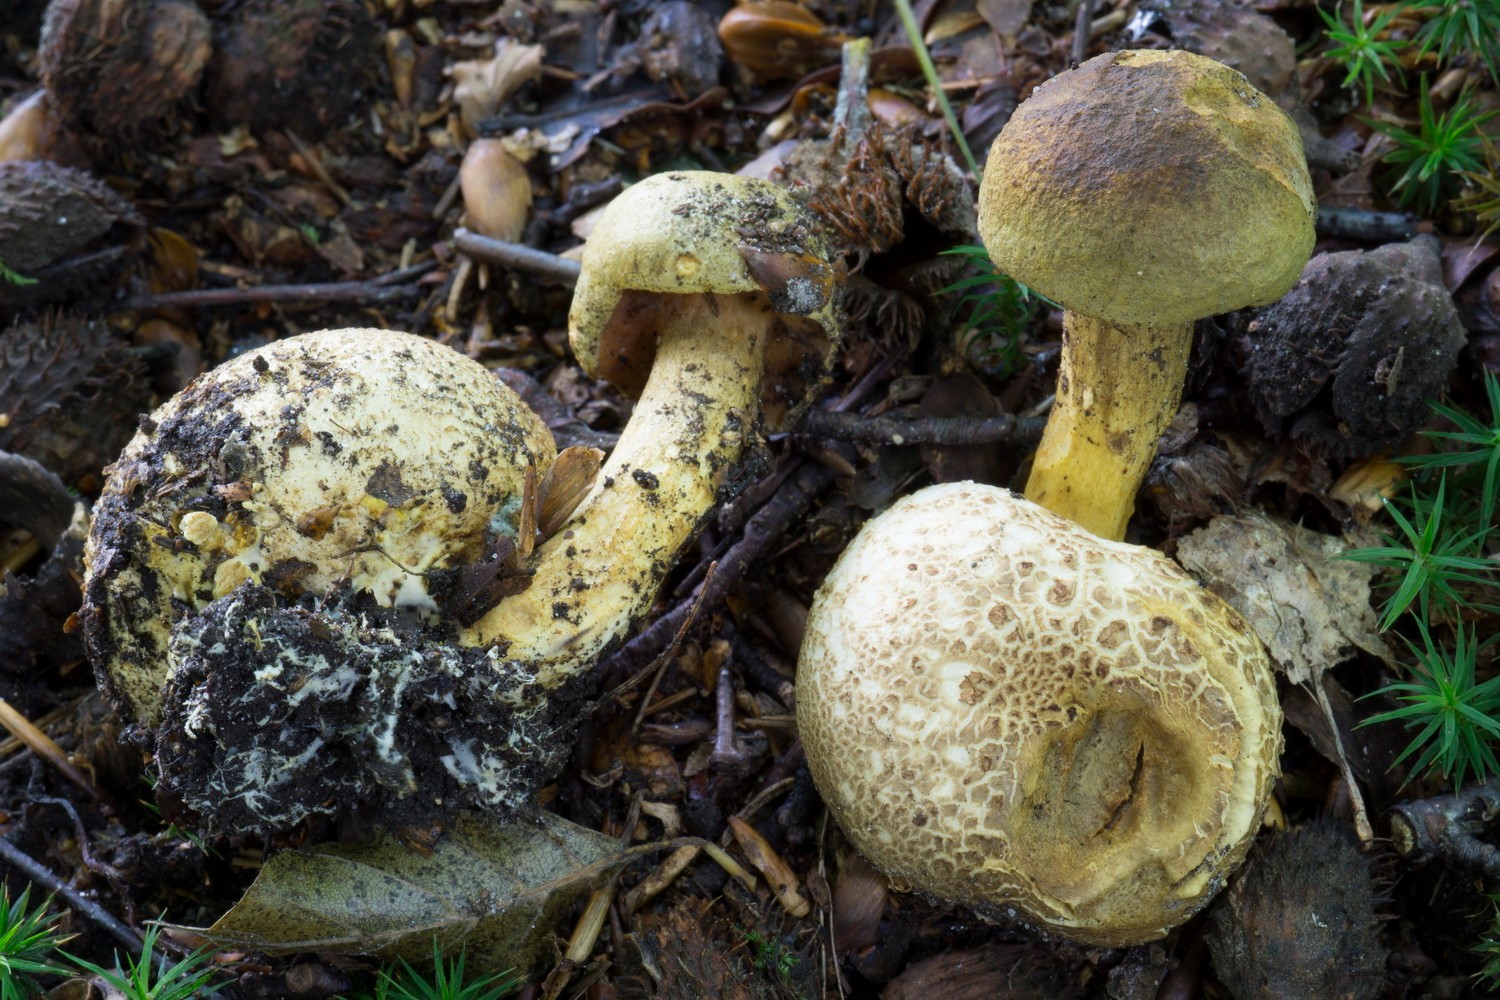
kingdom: Fungi
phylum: Basidiomycota
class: Agaricomycetes
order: Boletales
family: Boletaceae
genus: Pseudoboletus
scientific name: Pseudoboletus parasiticus
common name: snyltende rørhat
